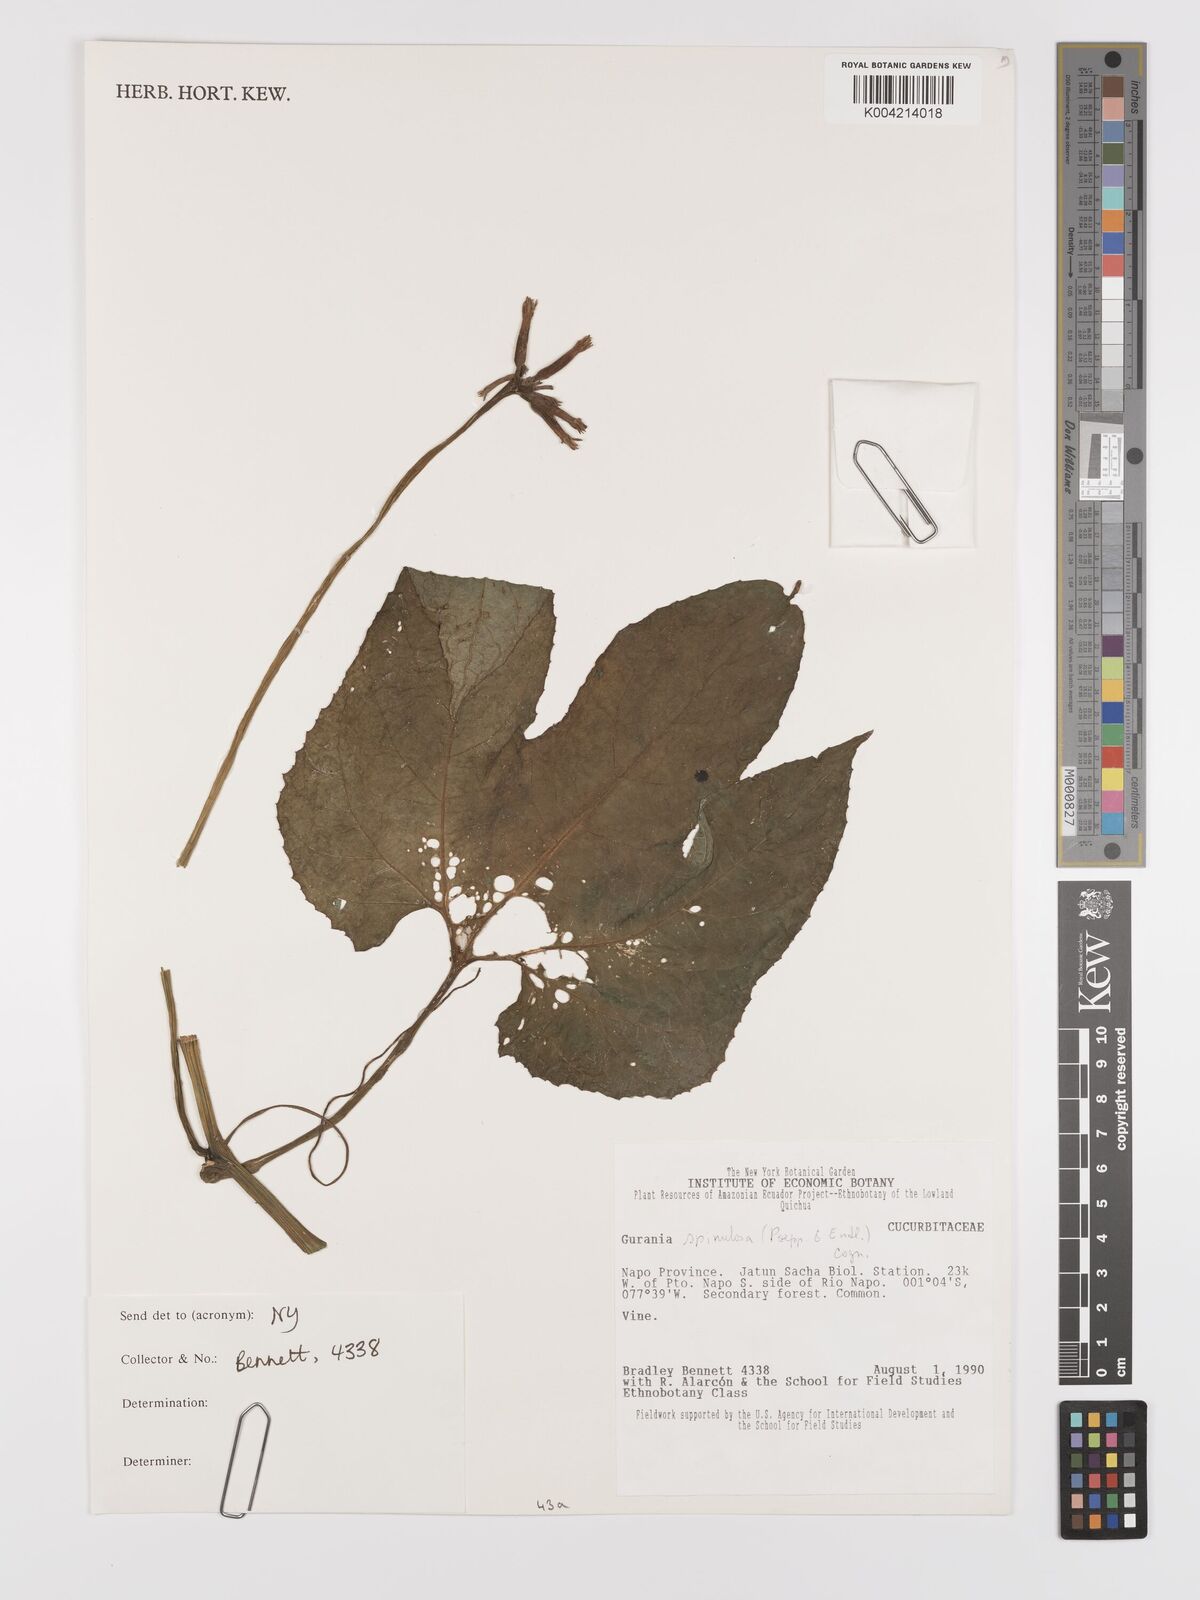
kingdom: Plantae
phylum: Tracheophyta
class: Magnoliopsida
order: Cucurbitales
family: Cucurbitaceae
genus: Gurania
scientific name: Gurania lobata
